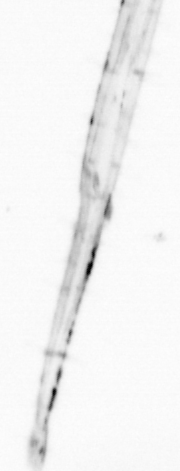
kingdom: Animalia
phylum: Chaetognatha
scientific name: Chaetognatha
